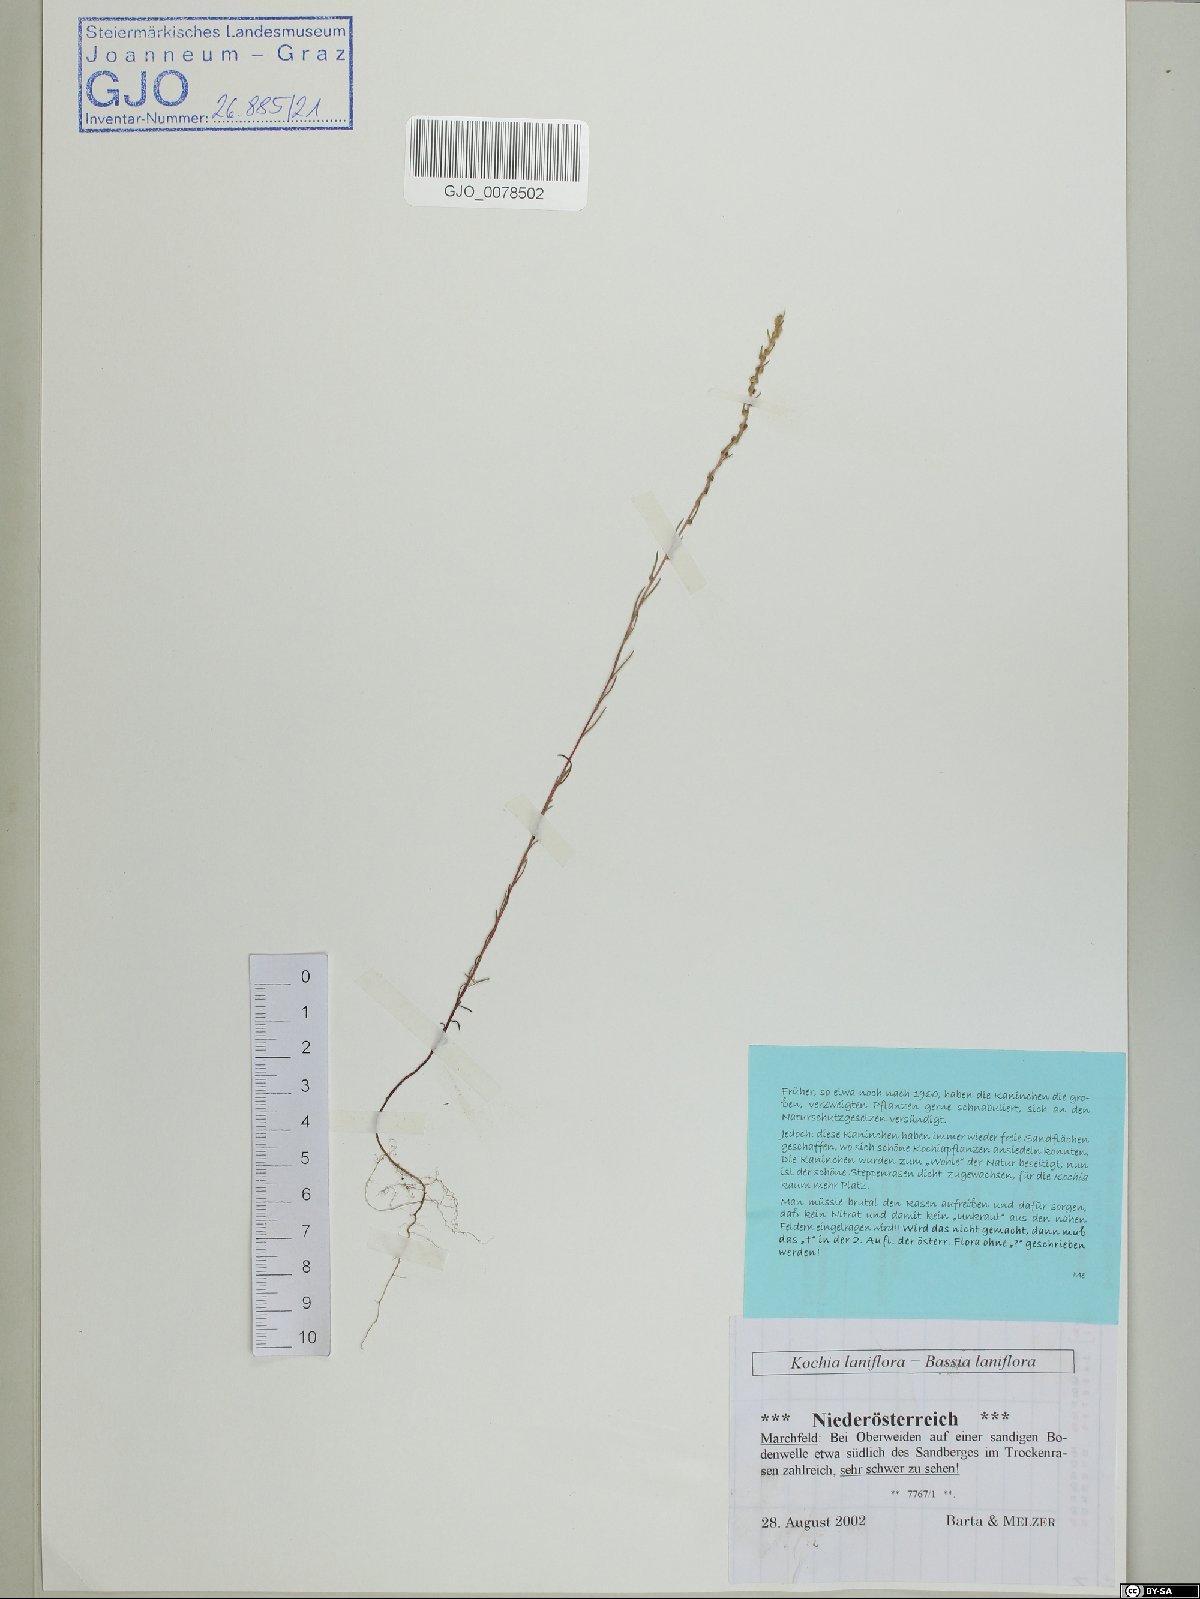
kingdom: Plantae
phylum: Tracheophyta
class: Magnoliopsida
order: Caryophyllales
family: Amaranthaceae
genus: Bassia
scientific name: Bassia laniflora
